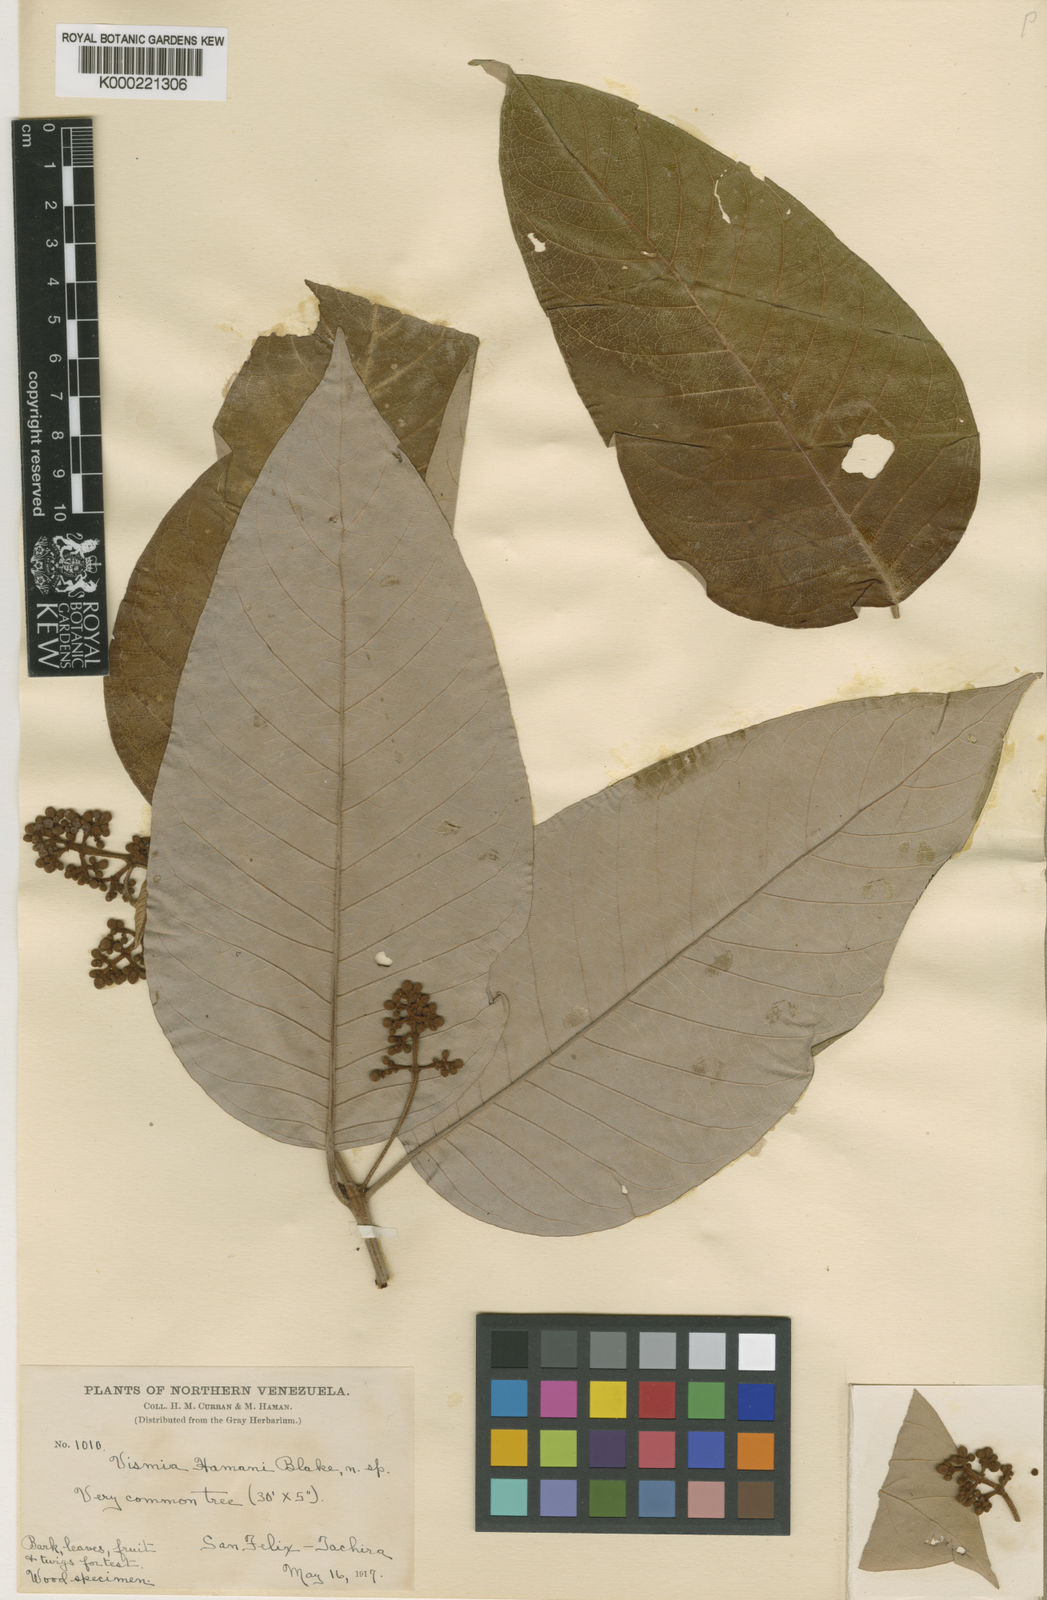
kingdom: Plantae
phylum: Tracheophyta
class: Magnoliopsida
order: Malpighiales
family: Hypericaceae
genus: Vismia
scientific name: Vismia baccifera
